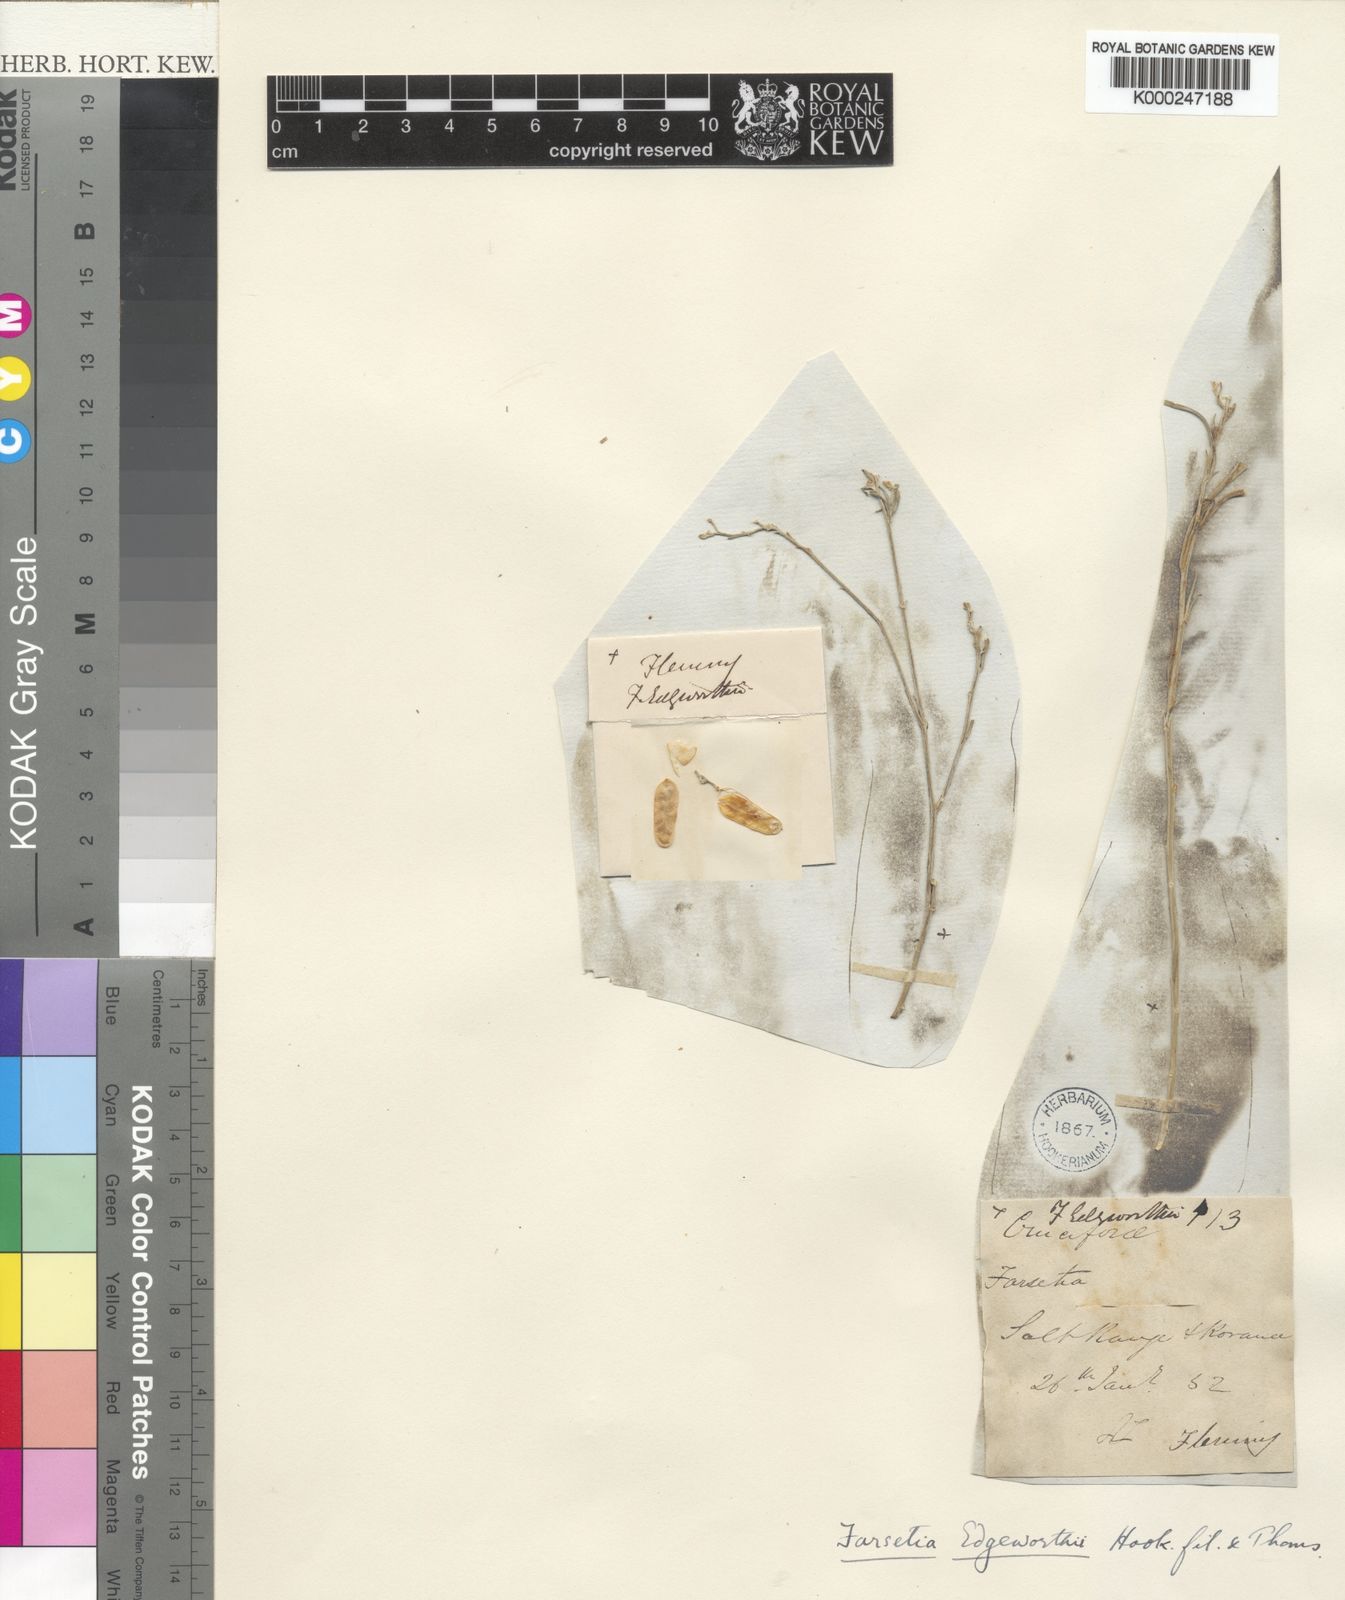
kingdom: Plantae
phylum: Tracheophyta
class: Magnoliopsida
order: Brassicales
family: Brassicaceae
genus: Farsetia
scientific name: Farsetia jacquemontii
